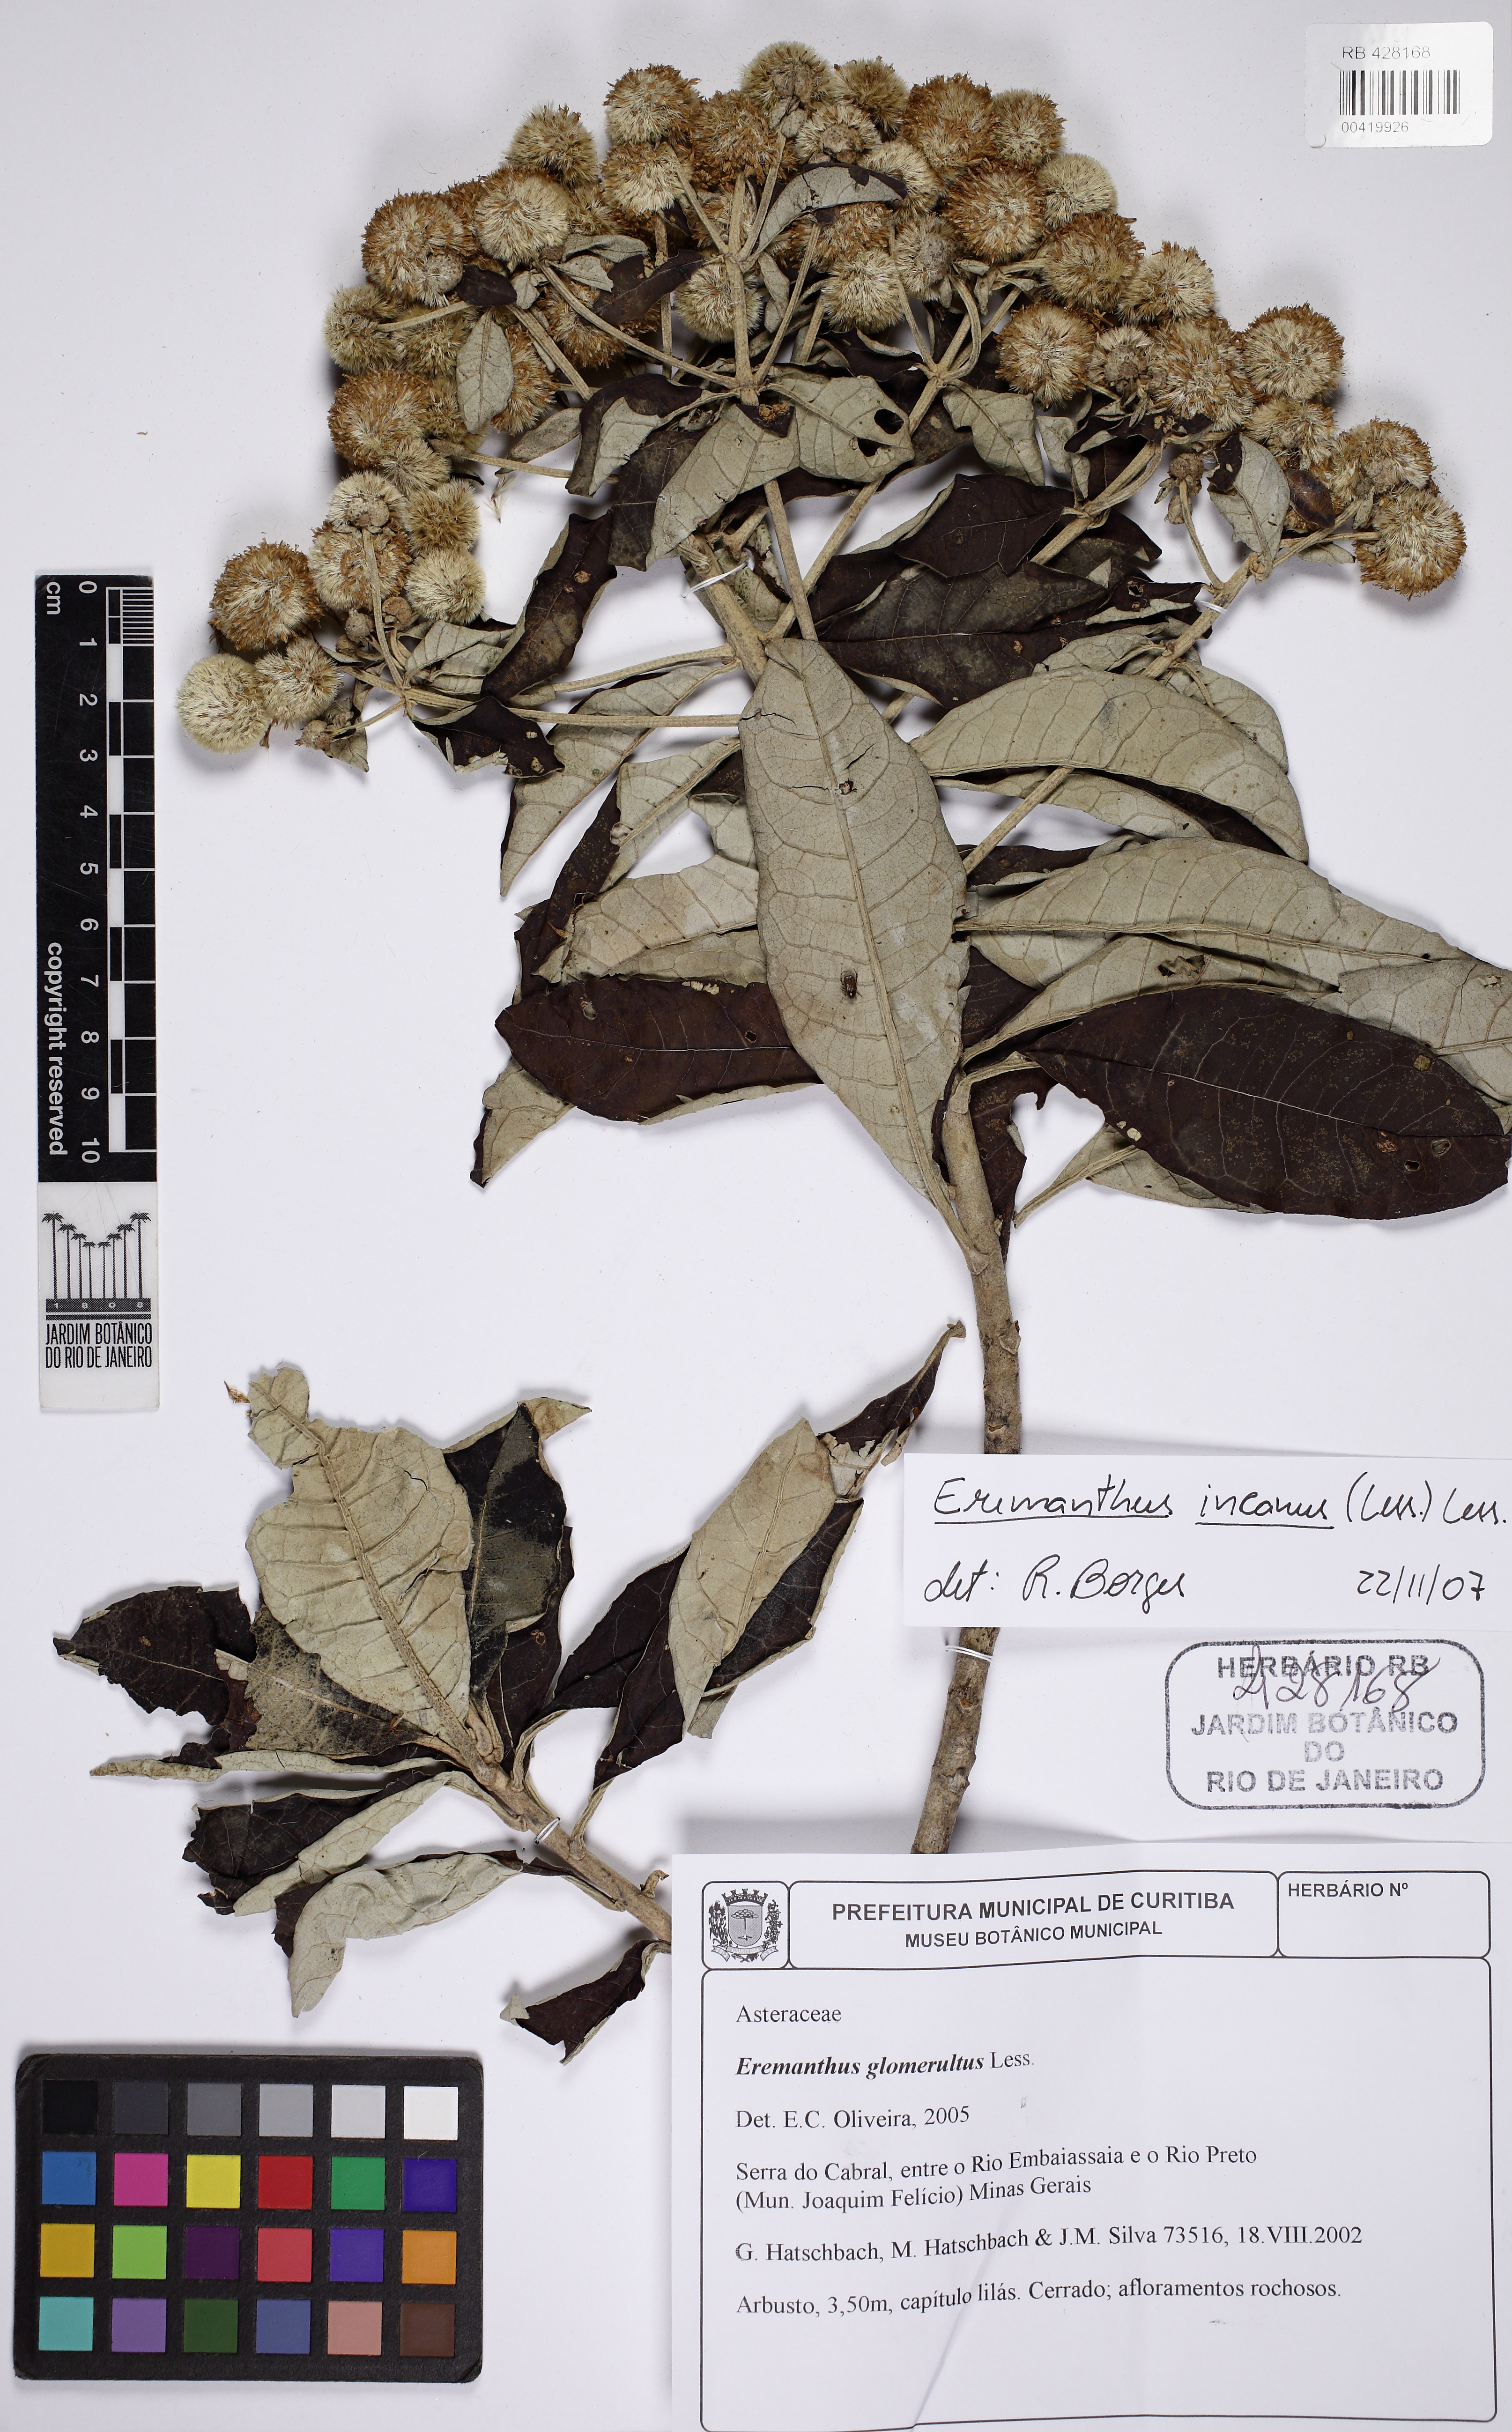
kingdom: Plantae
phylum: Tracheophyta
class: Magnoliopsida
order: Asterales
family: Asteraceae
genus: Eremanthus
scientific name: Eremanthus incanus
